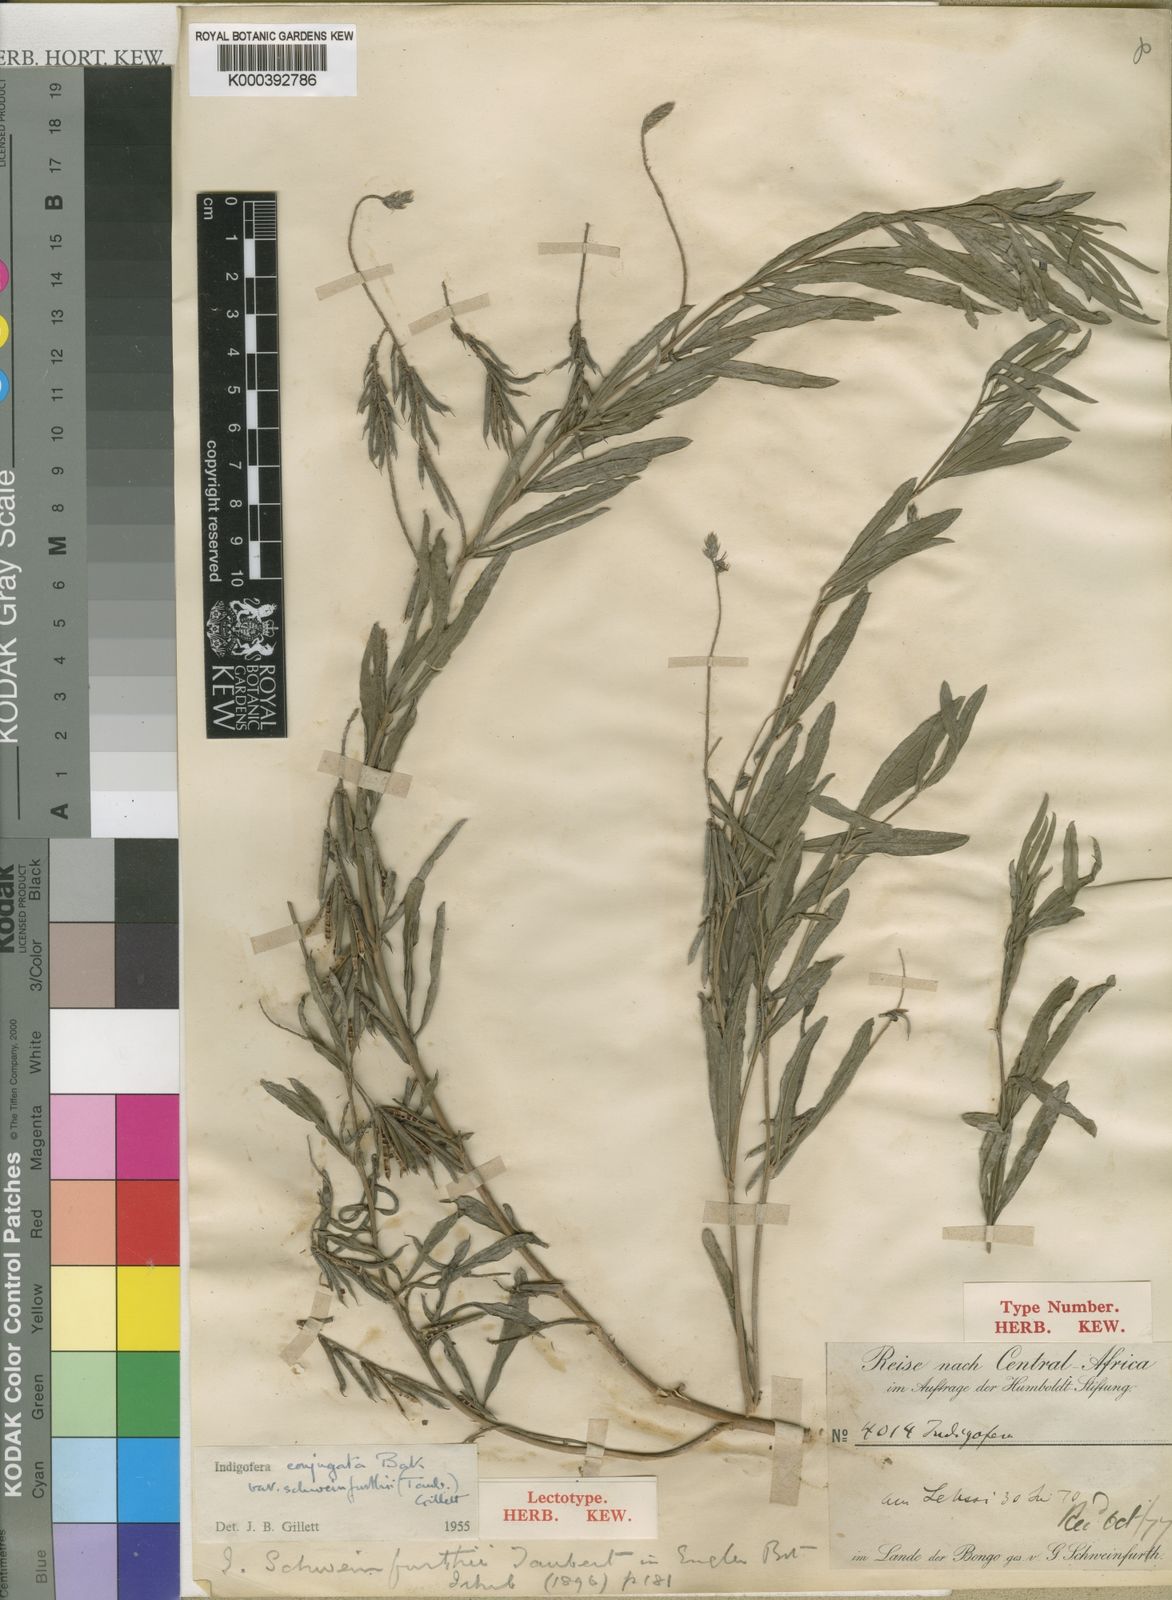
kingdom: Plantae
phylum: Tracheophyta
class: Magnoliopsida
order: Fabales
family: Fabaceae
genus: Indigofera
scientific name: Indigofera conjugata
